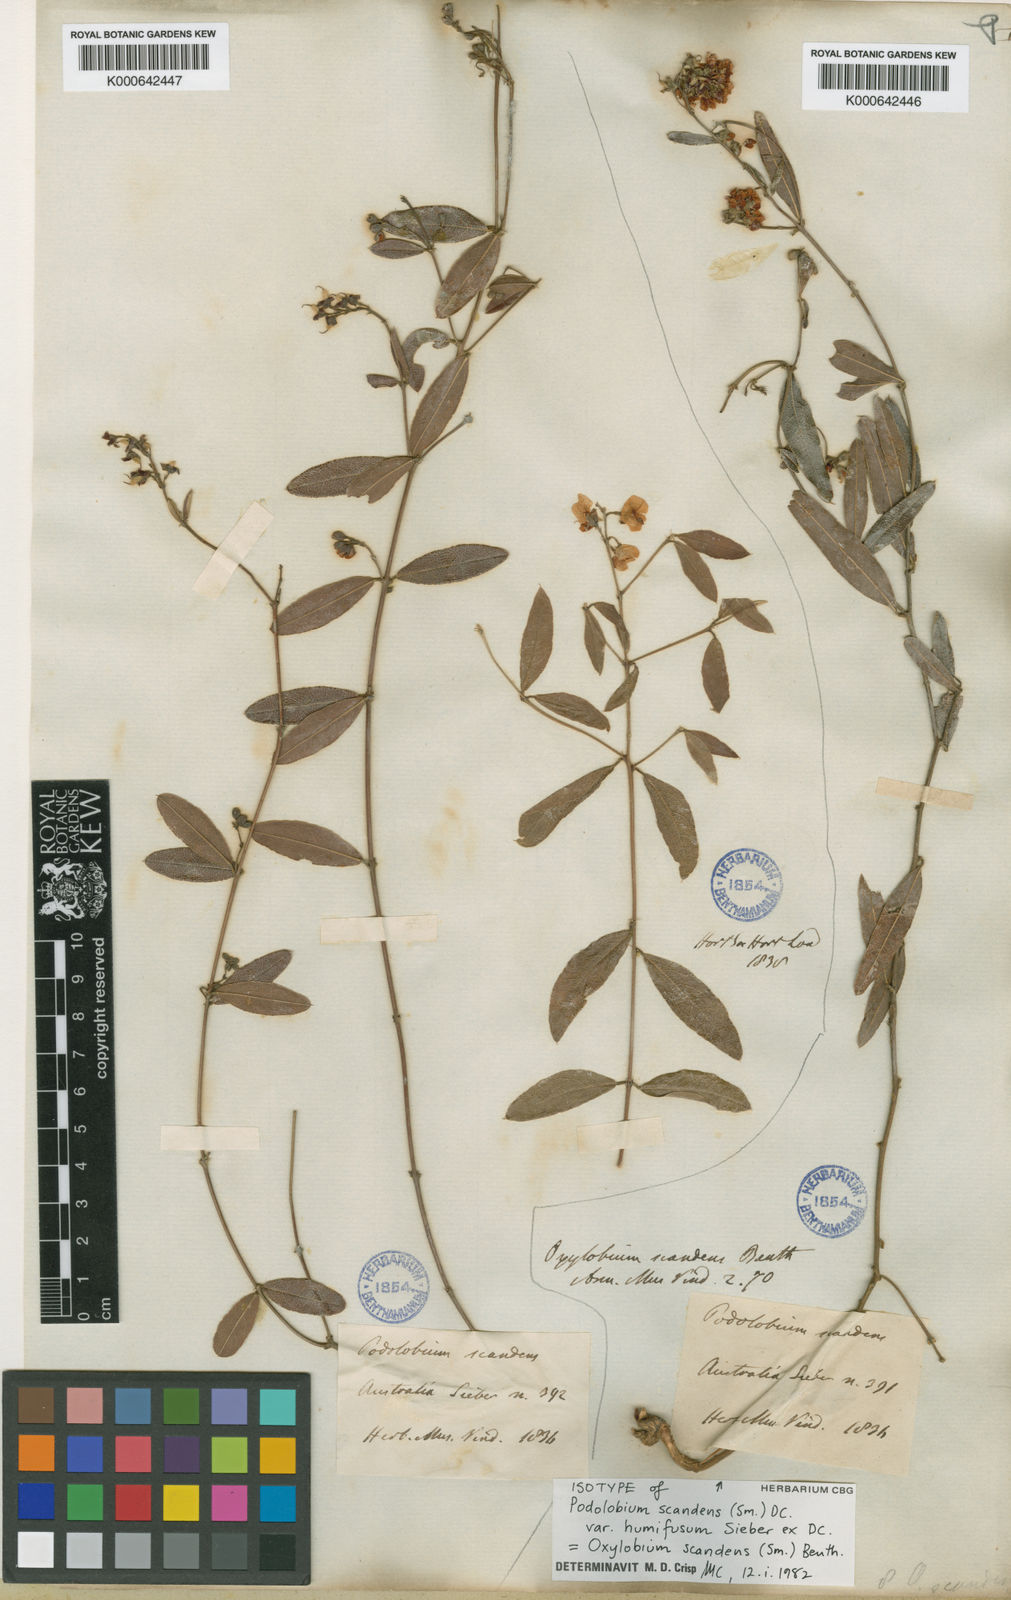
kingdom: Plantae
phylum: Tracheophyta
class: Magnoliopsida
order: Fabales
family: Fabaceae
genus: Podolobium
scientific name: Podolobium scandens
